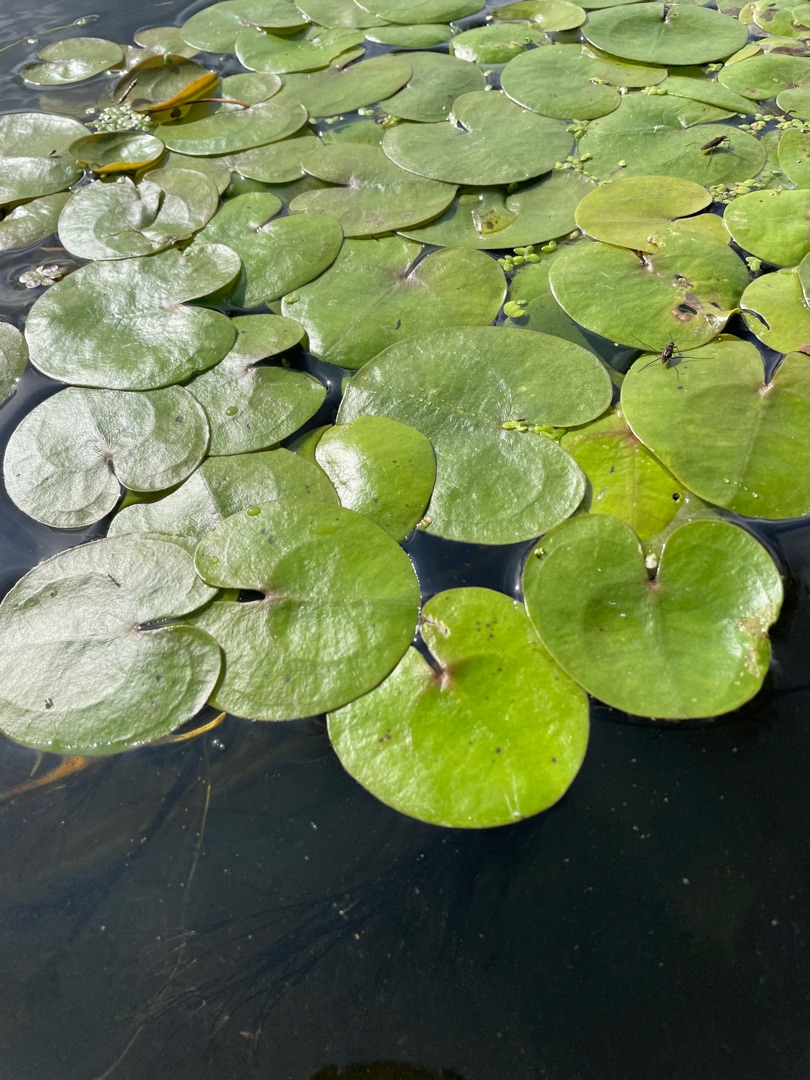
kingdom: Plantae
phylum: Tracheophyta
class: Liliopsida
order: Alismatales
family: Hydrocharitaceae
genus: Hydrocharis
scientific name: Hydrocharis morsus-ranae
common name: Frøbid
